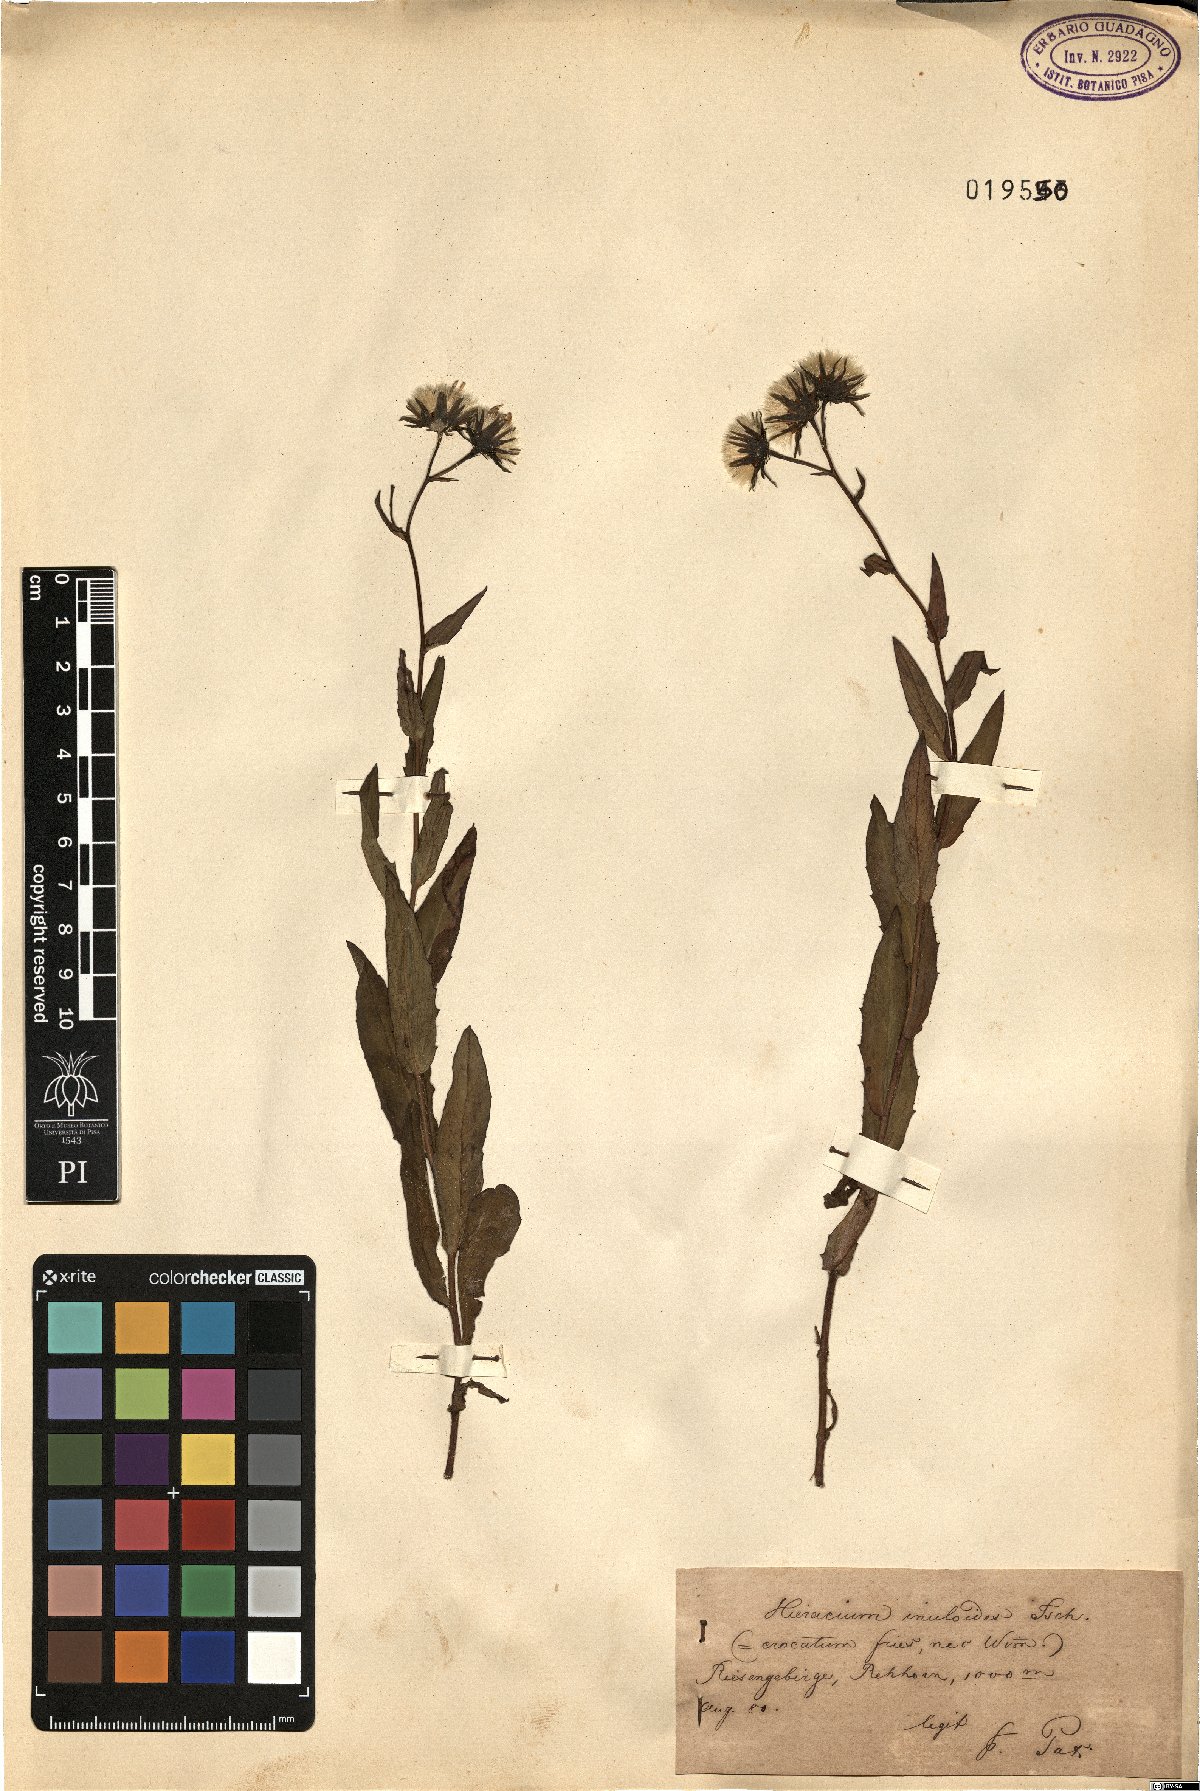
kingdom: Plantae
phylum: Tracheophyta
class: Magnoliopsida
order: Asterales
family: Asteraceae
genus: Hieracium
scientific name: Hieracium inuloides
